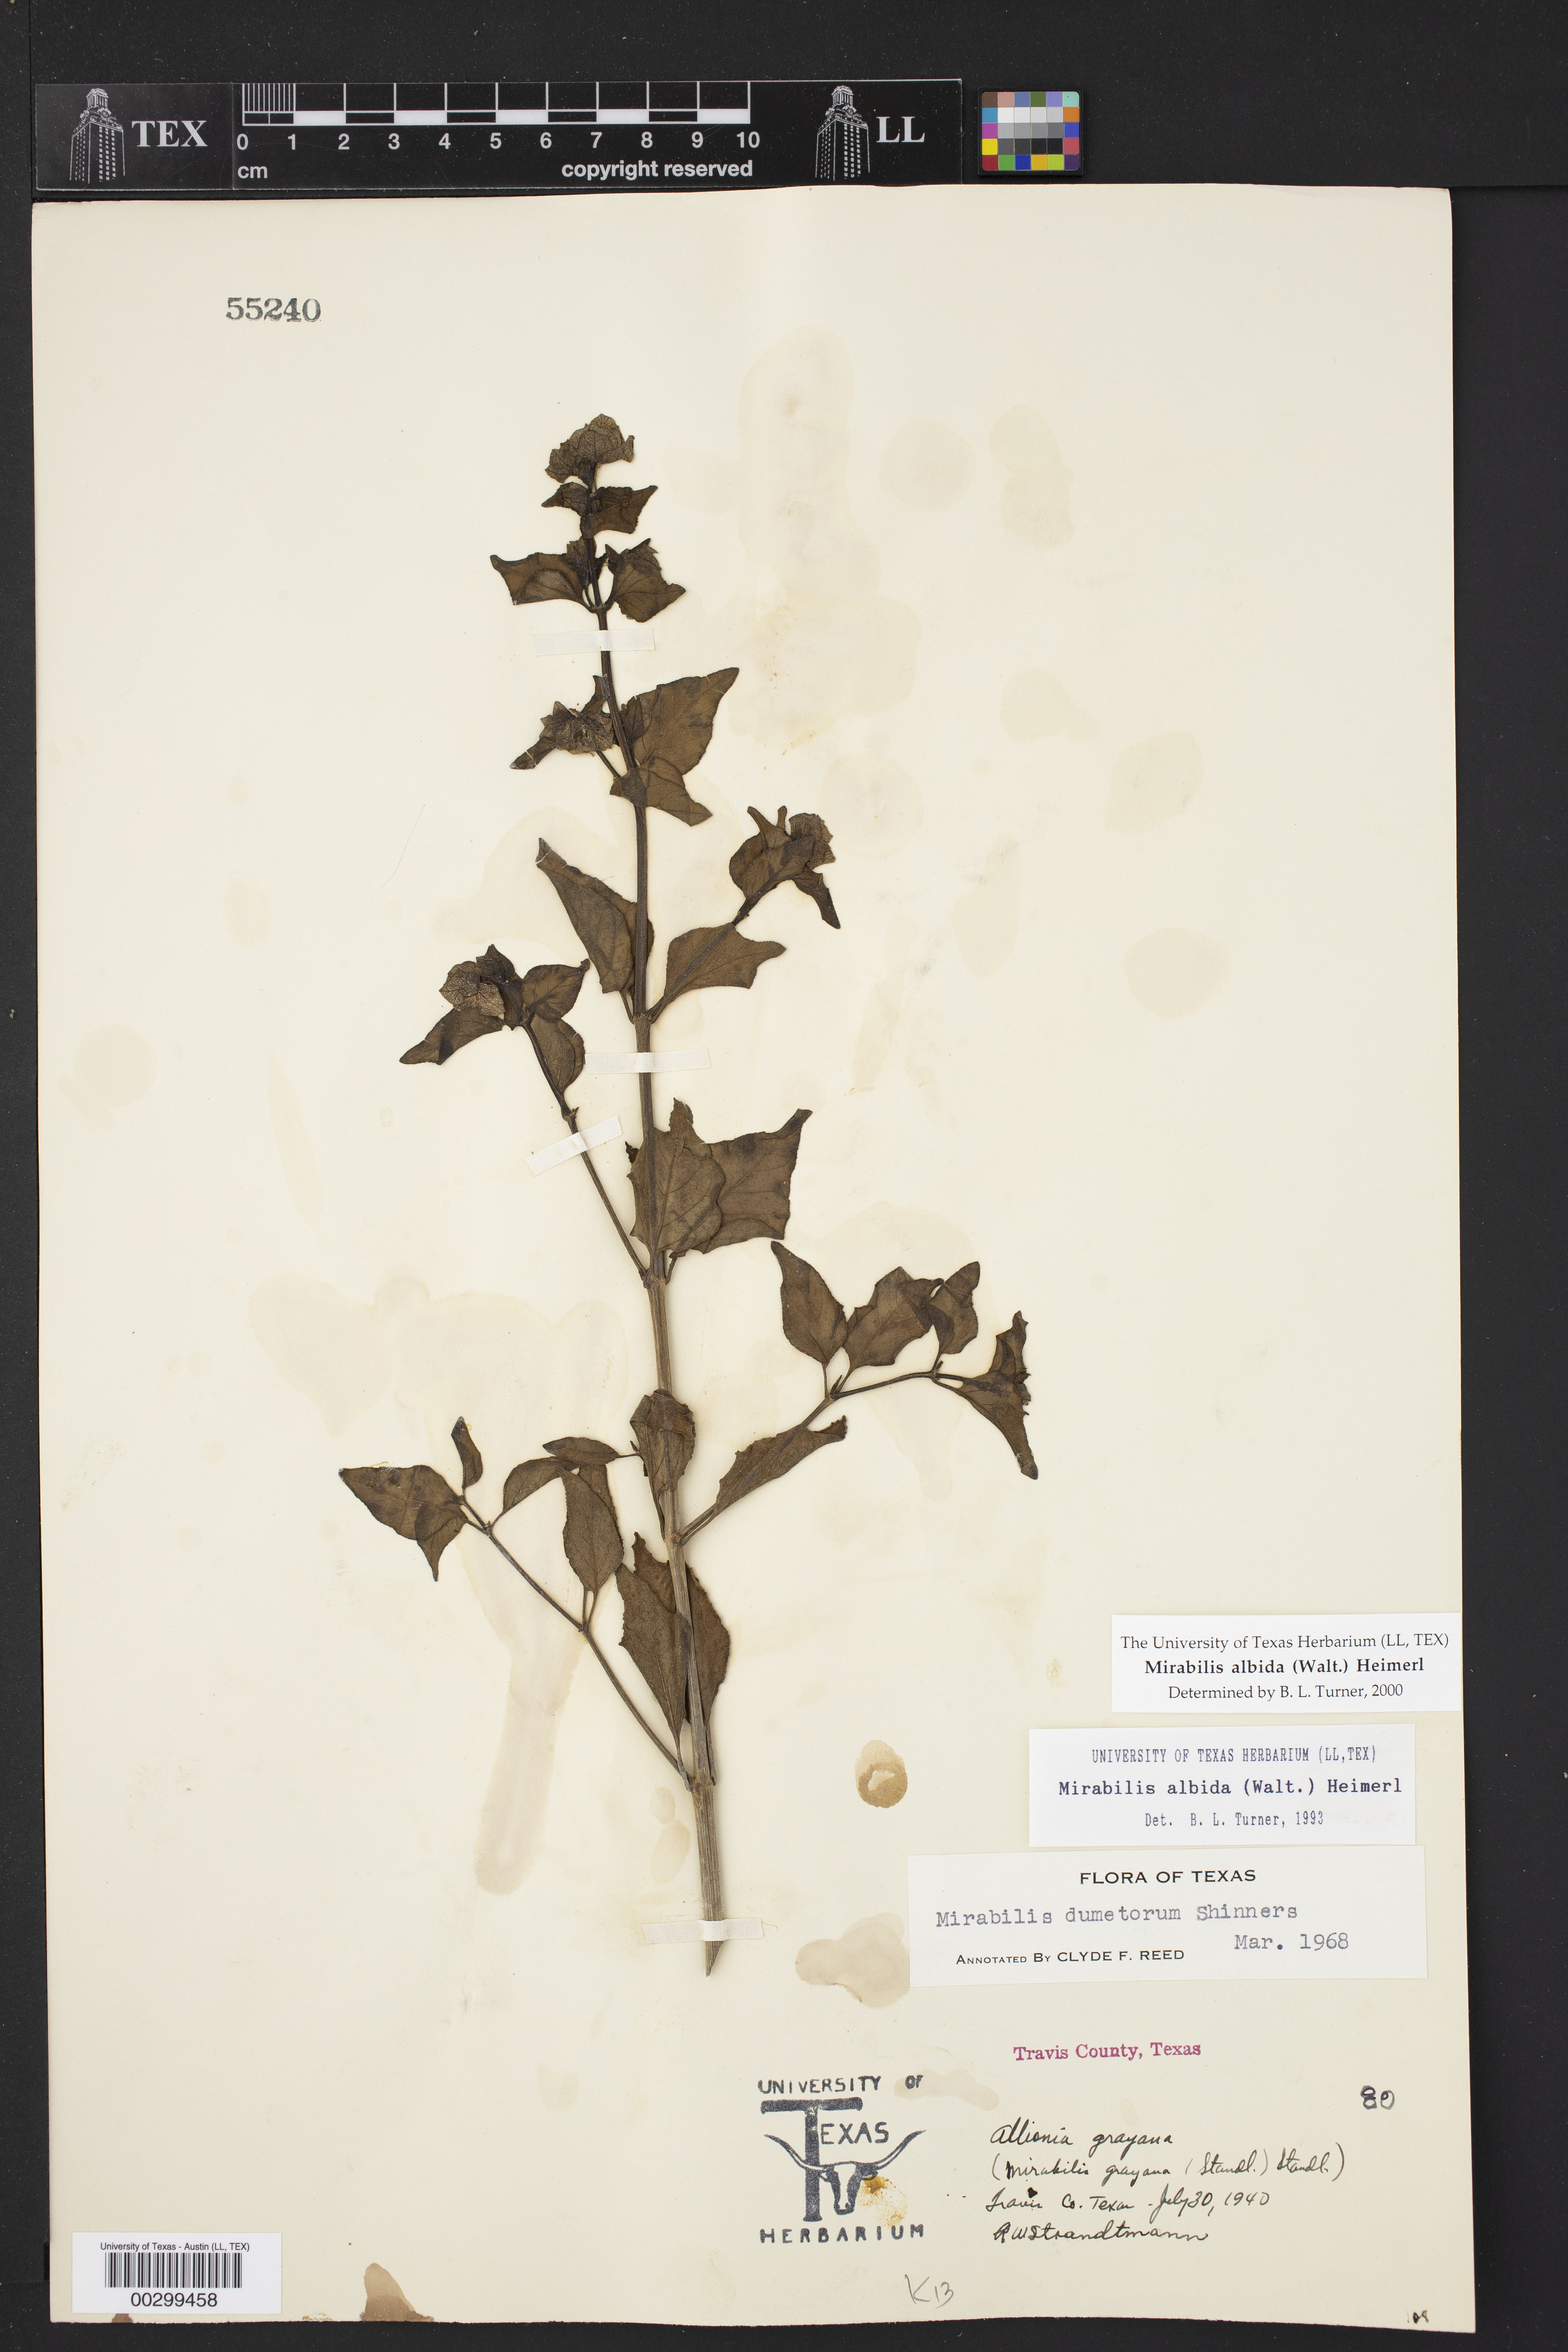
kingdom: Plantae
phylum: Tracheophyta
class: Magnoliopsida
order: Caryophyllales
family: Nyctaginaceae
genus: Mirabilis
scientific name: Mirabilis albida
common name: Hairy four-o'clock
